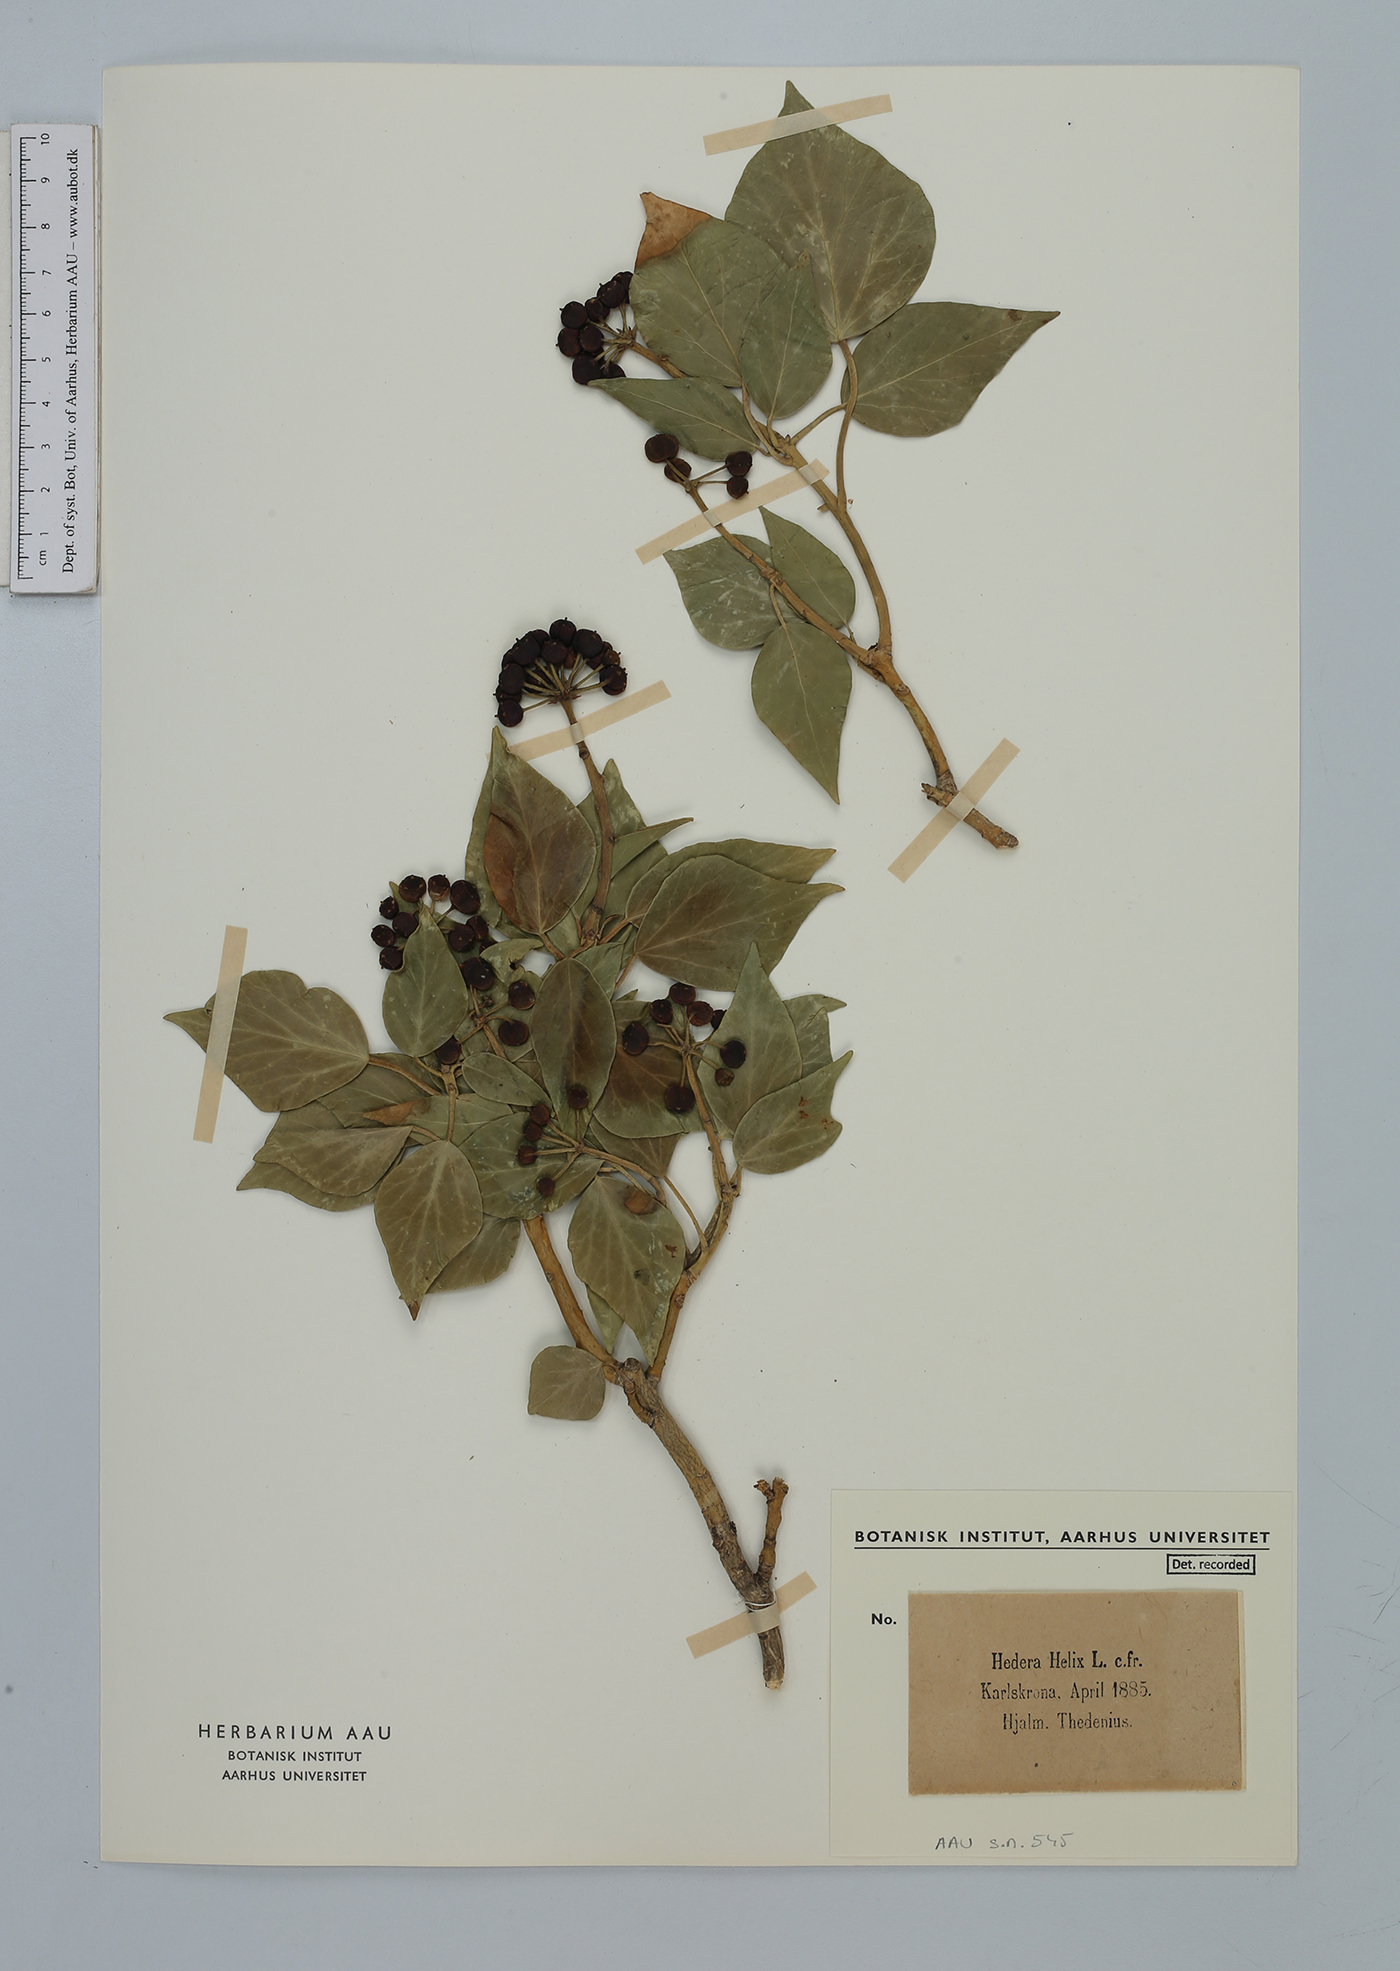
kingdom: Plantae
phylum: Tracheophyta
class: Magnoliopsida
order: Apiales
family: Araliaceae
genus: Hedera
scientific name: Hedera helix
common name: Ivy
